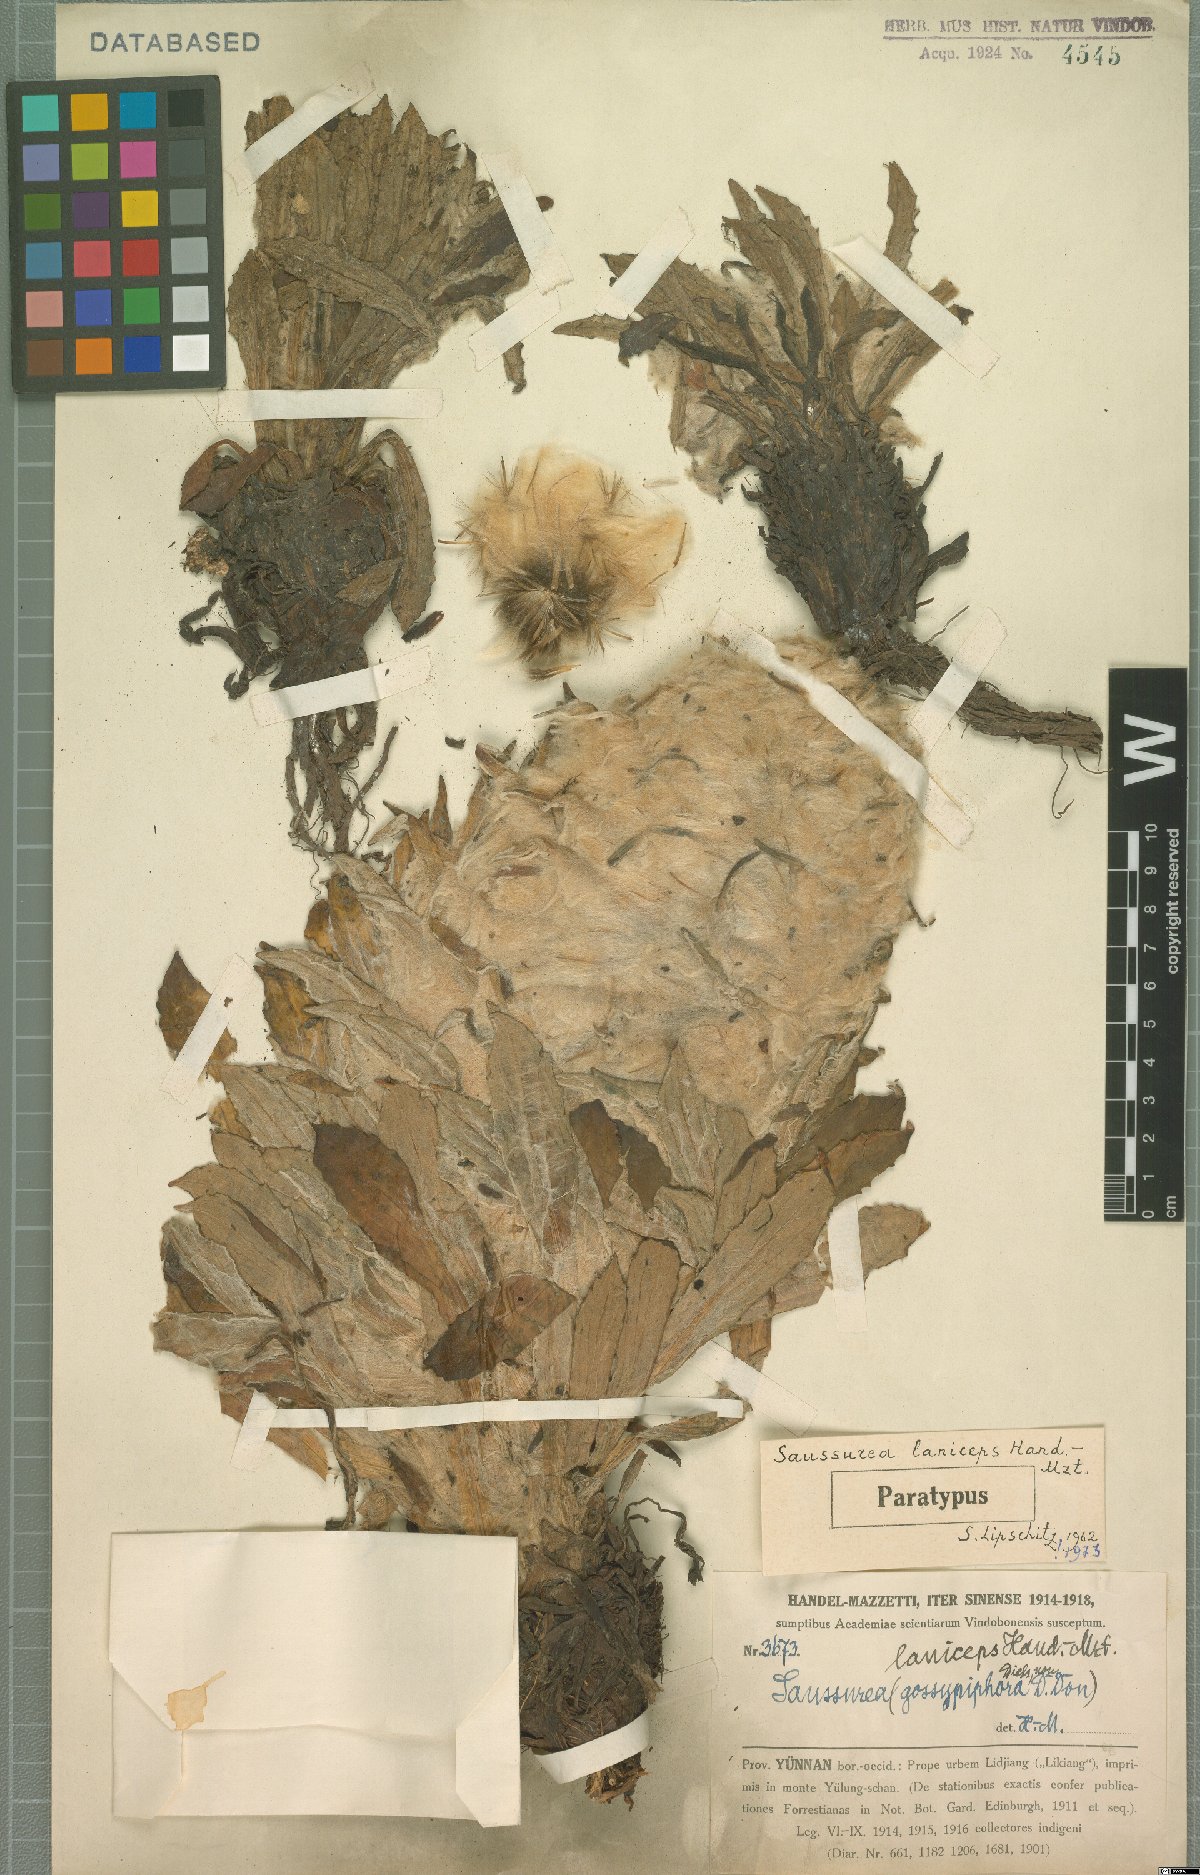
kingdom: Plantae
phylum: Tracheophyta
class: Magnoliopsida
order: Asterales
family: Asteraceae
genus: Saussurea
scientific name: Saussurea laniceps
